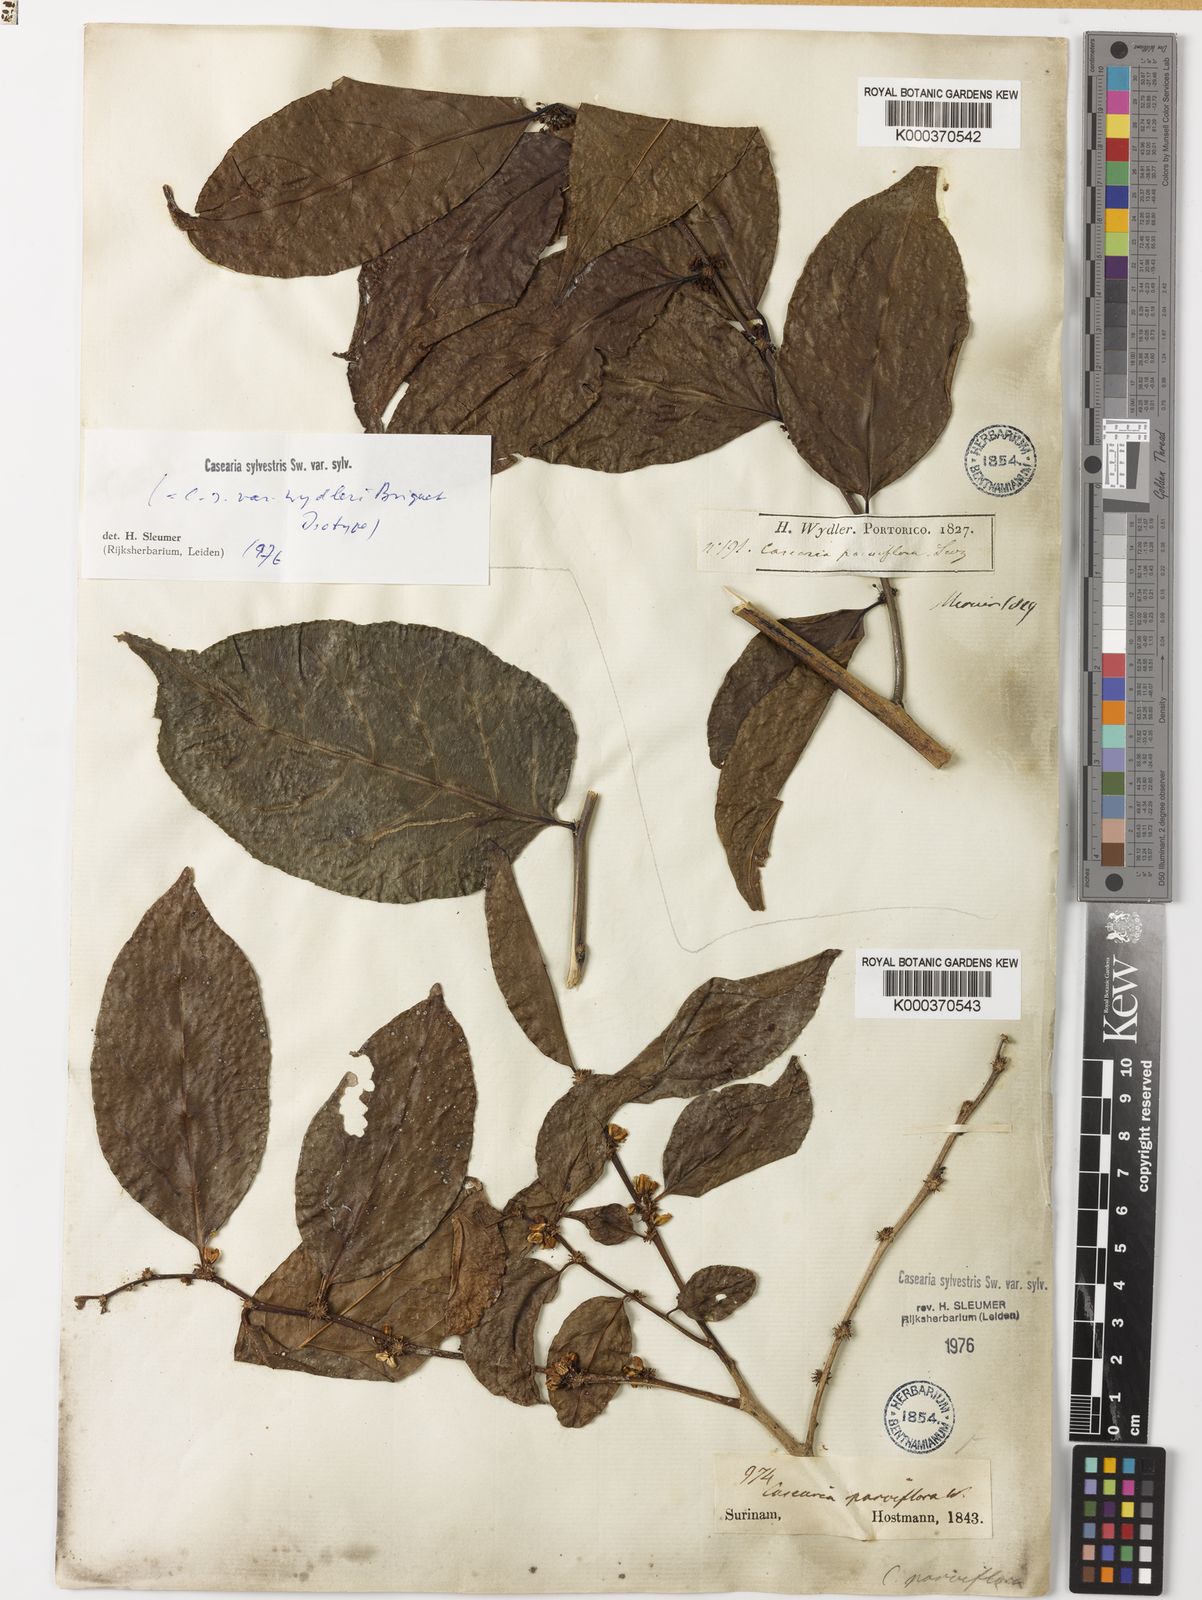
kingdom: Plantae
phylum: Tracheophyta
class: Magnoliopsida
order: Malpighiales
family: Salicaceae
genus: Casearia
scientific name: Casearia sylvestris
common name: Wild sage
